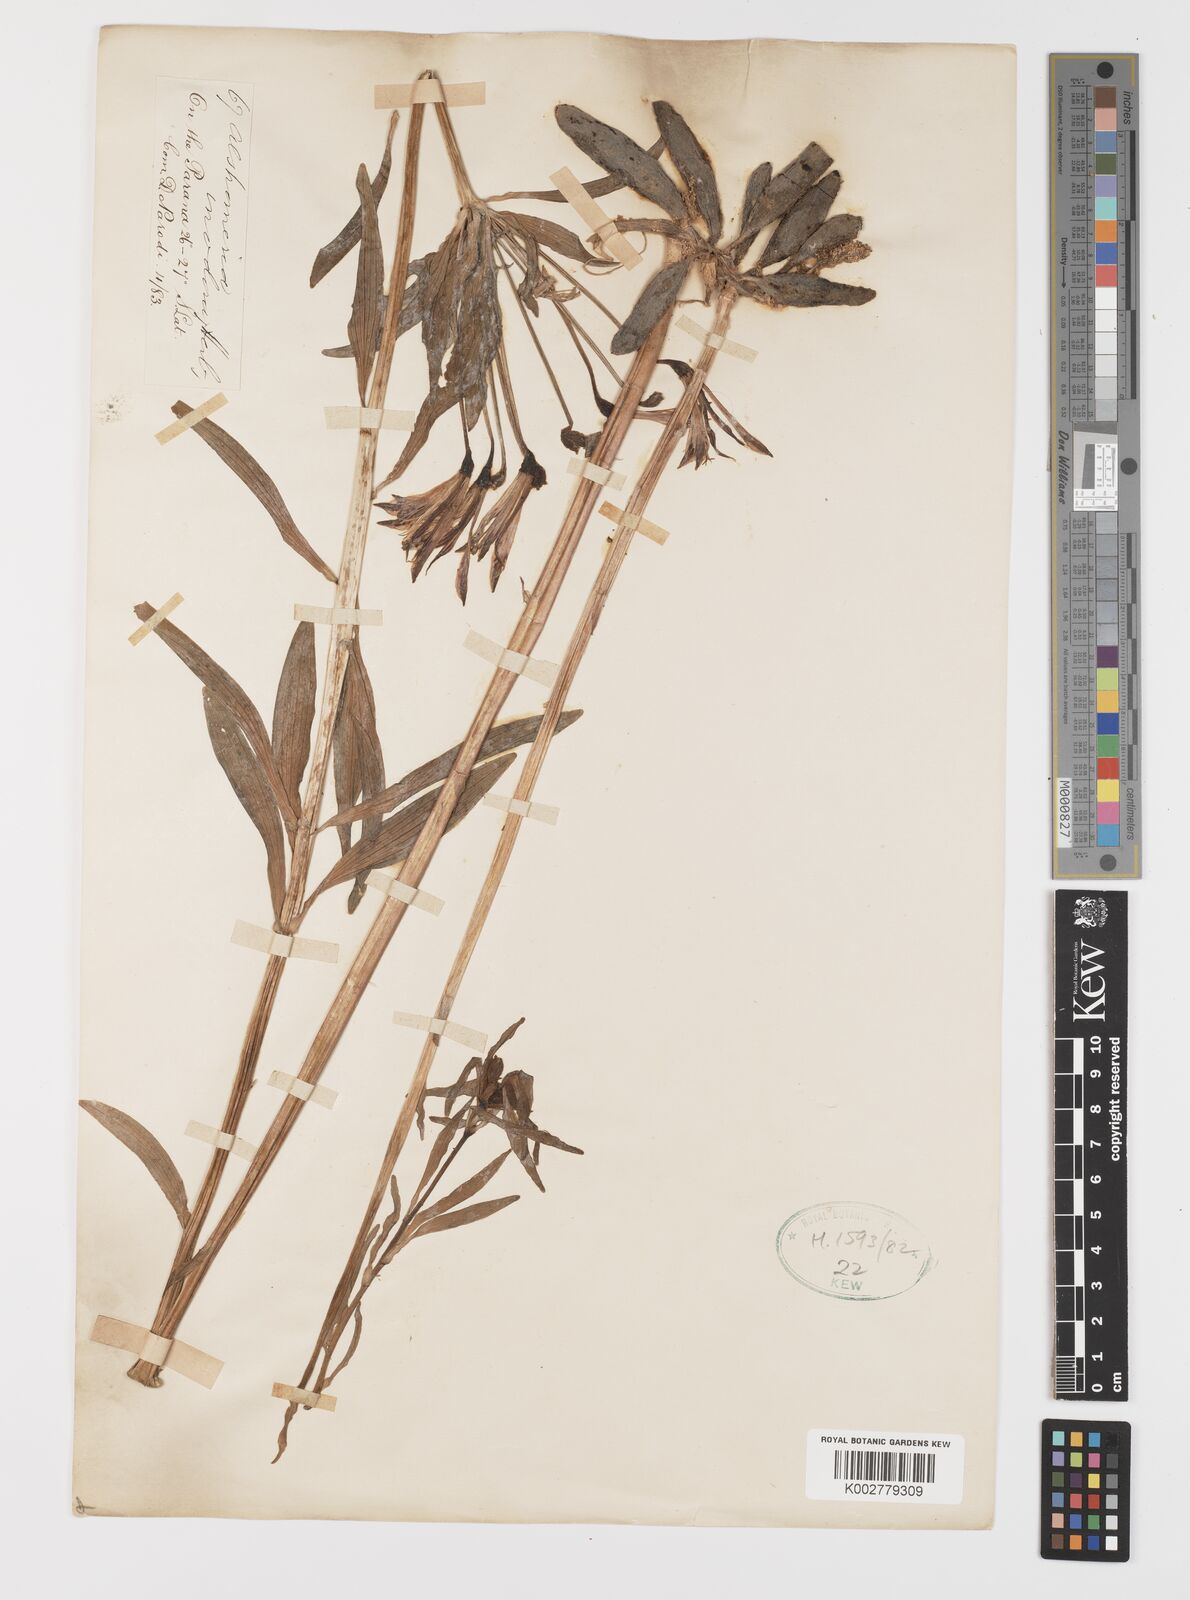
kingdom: Plantae
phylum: Tracheophyta
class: Liliopsida
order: Liliales
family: Alstroemeriaceae
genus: Alstroemeria
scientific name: Alstroemeria
